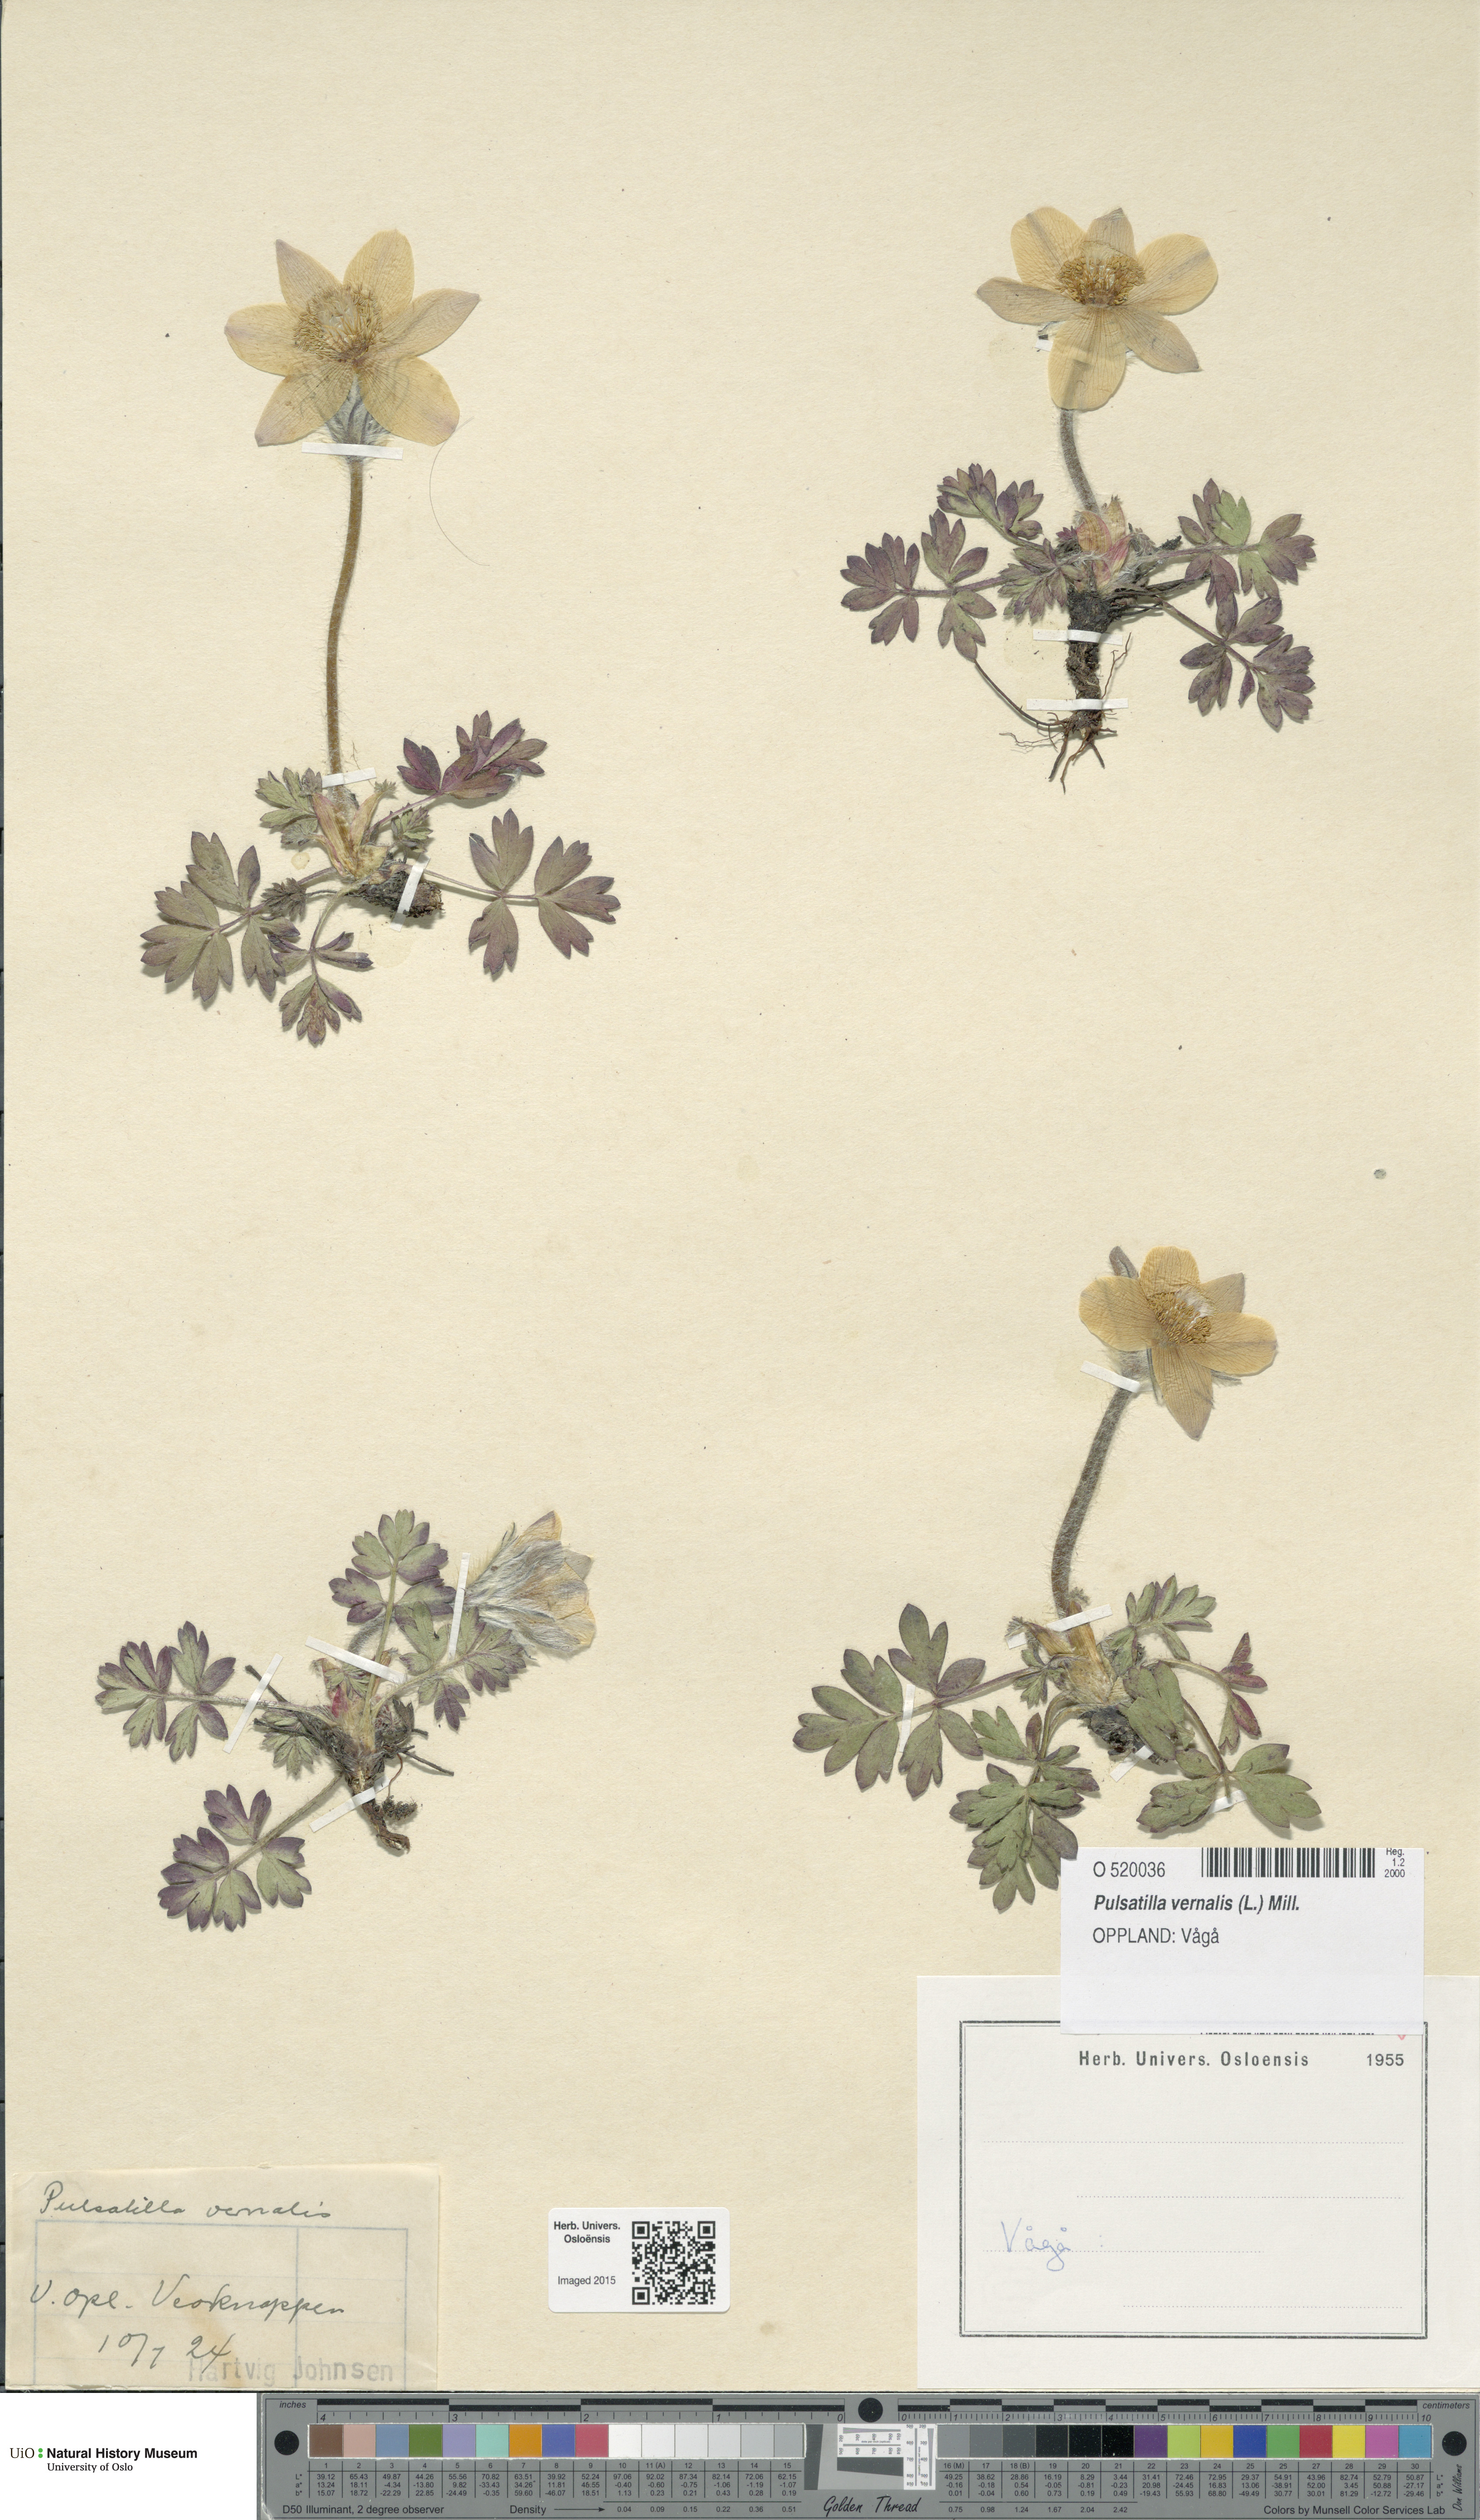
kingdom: Plantae
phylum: Tracheophyta
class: Magnoliopsida
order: Ranunculales
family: Ranunculaceae
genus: Pulsatilla
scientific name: Pulsatilla vernalis
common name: Spring pasque flower
